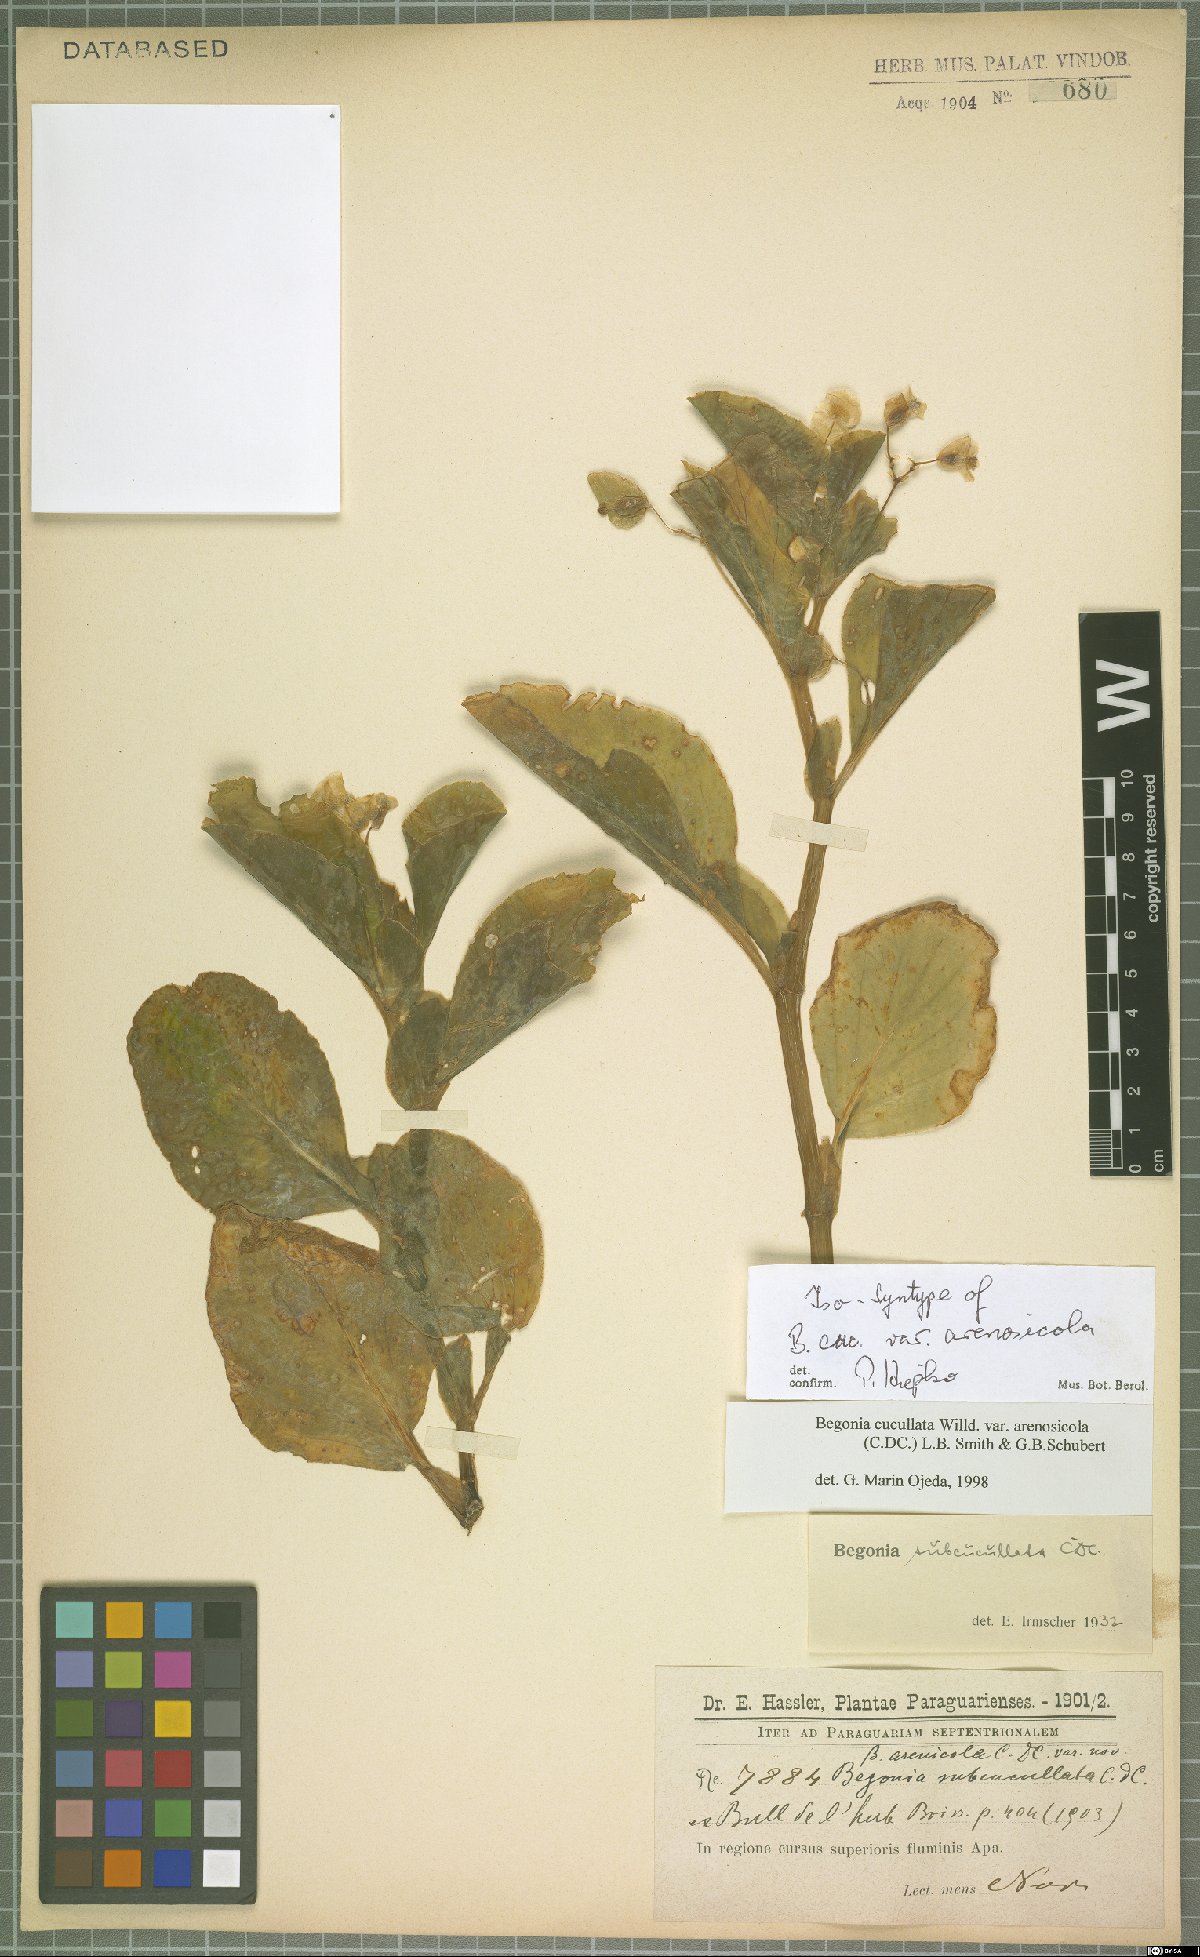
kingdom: Plantae
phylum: Tracheophyta
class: Magnoliopsida
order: Cucurbitales
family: Begoniaceae
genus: Begonia
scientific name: Begonia cucullata
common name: Clubbed begonia
